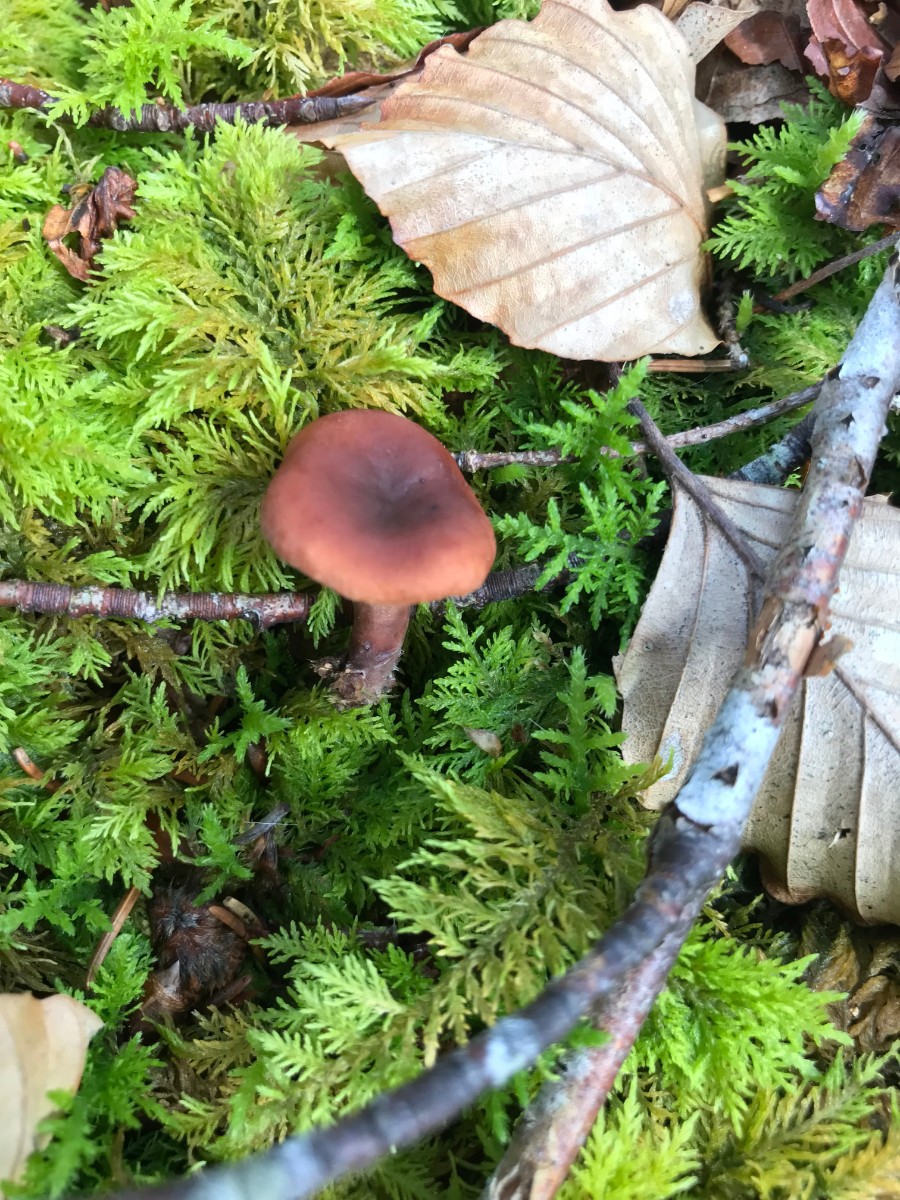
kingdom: Fungi
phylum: Basidiomycota
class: Agaricomycetes
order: Russulales
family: Russulaceae
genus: Lactarius
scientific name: Lactarius camphoratus
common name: kamfer-mælkehat
